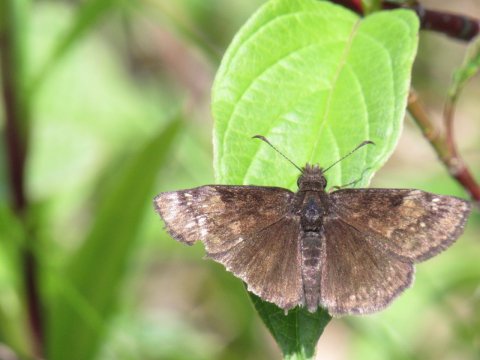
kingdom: Animalia
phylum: Arthropoda
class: Insecta
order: Lepidoptera
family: Hesperiidae
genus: Erynnis
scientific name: Erynnis
